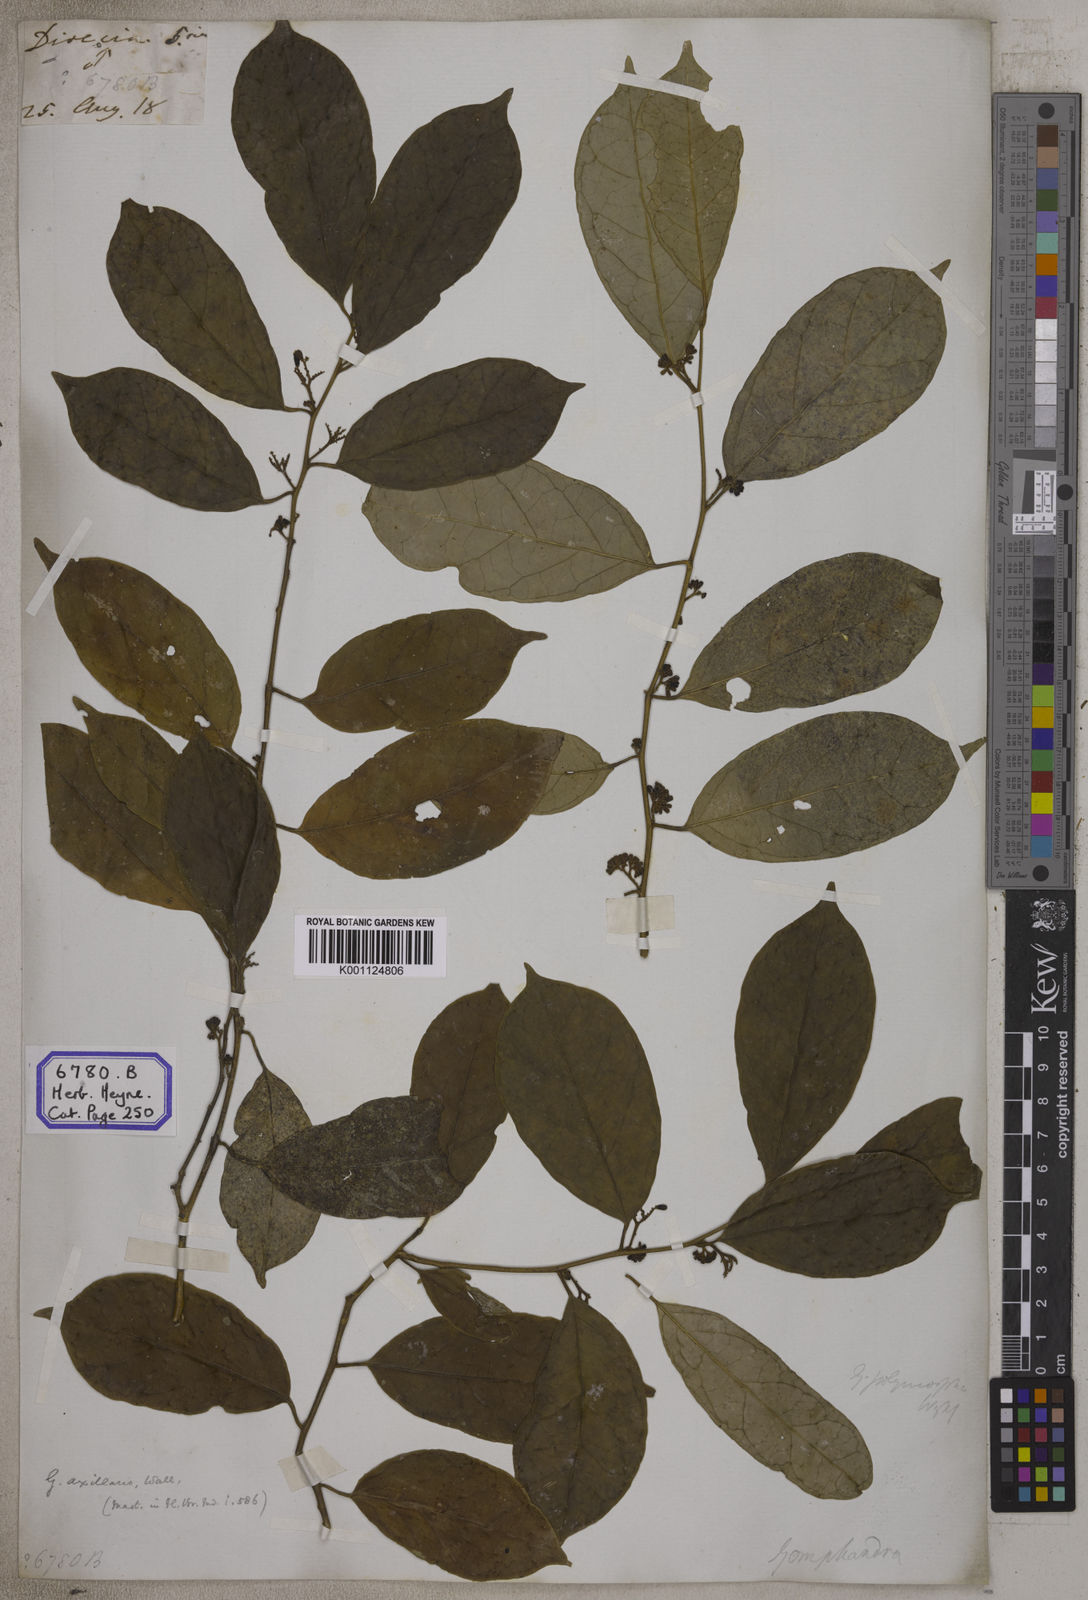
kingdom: Plantae
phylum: Tracheophyta
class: Magnoliopsida
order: Santalales
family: Olacaceae
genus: Olax
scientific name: Olax acuminata
